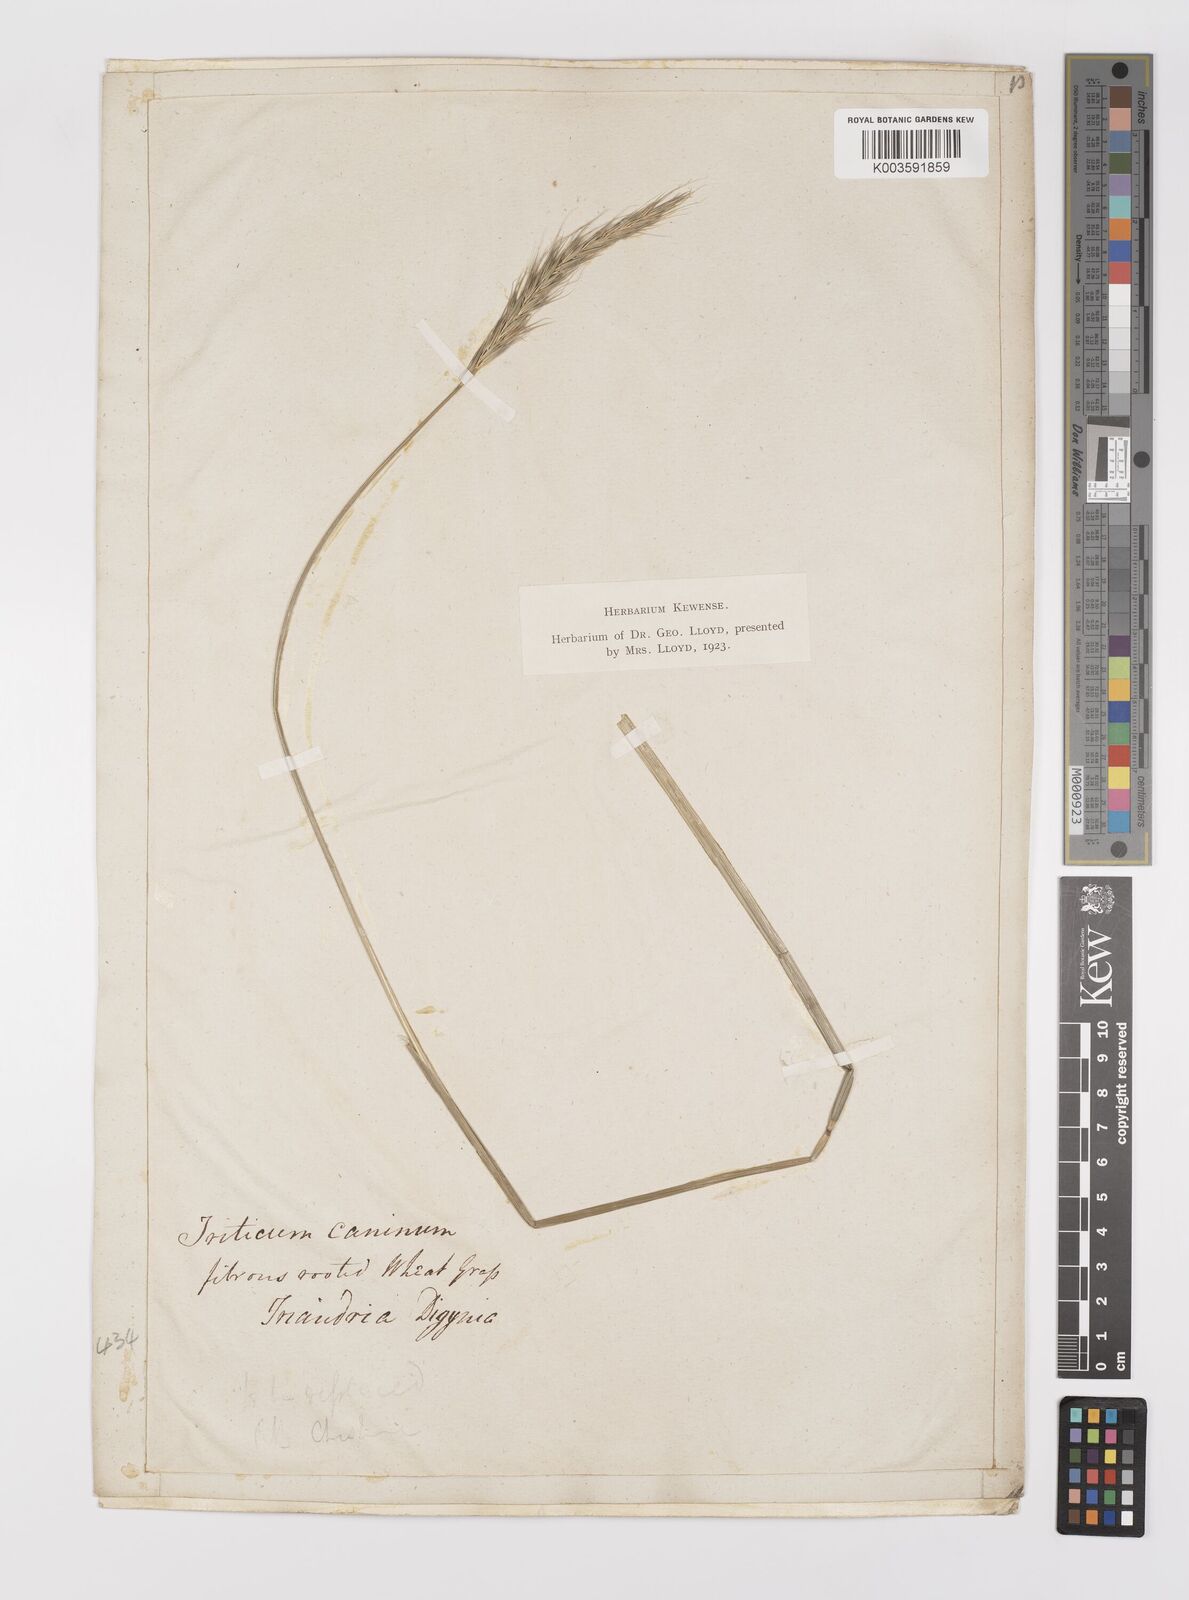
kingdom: Plantae
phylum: Tracheophyta
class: Liliopsida
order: Poales
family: Poaceae
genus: Hordelymus
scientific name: Hordelymus europaeus
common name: Wood-barley
